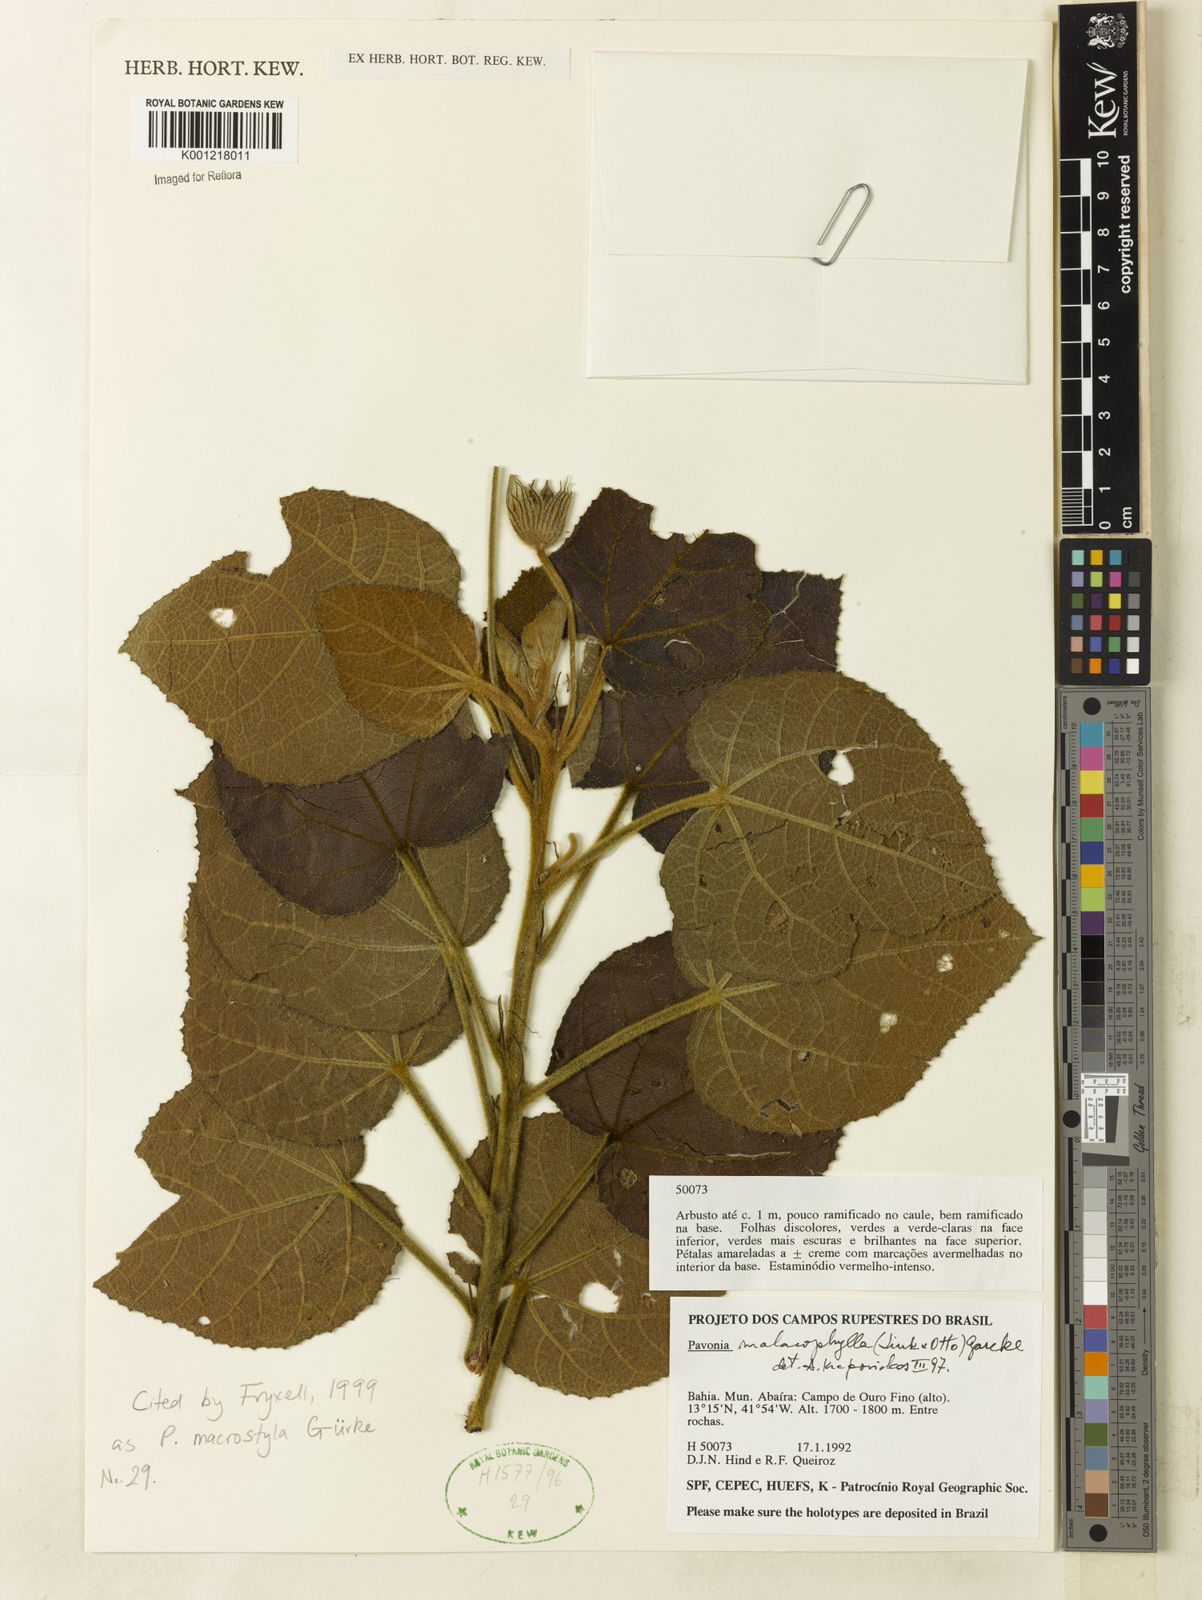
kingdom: Plantae
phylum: Tracheophyta
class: Magnoliopsida
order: Malvales
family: Malvaceae
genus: Pavonia
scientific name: Pavonia
